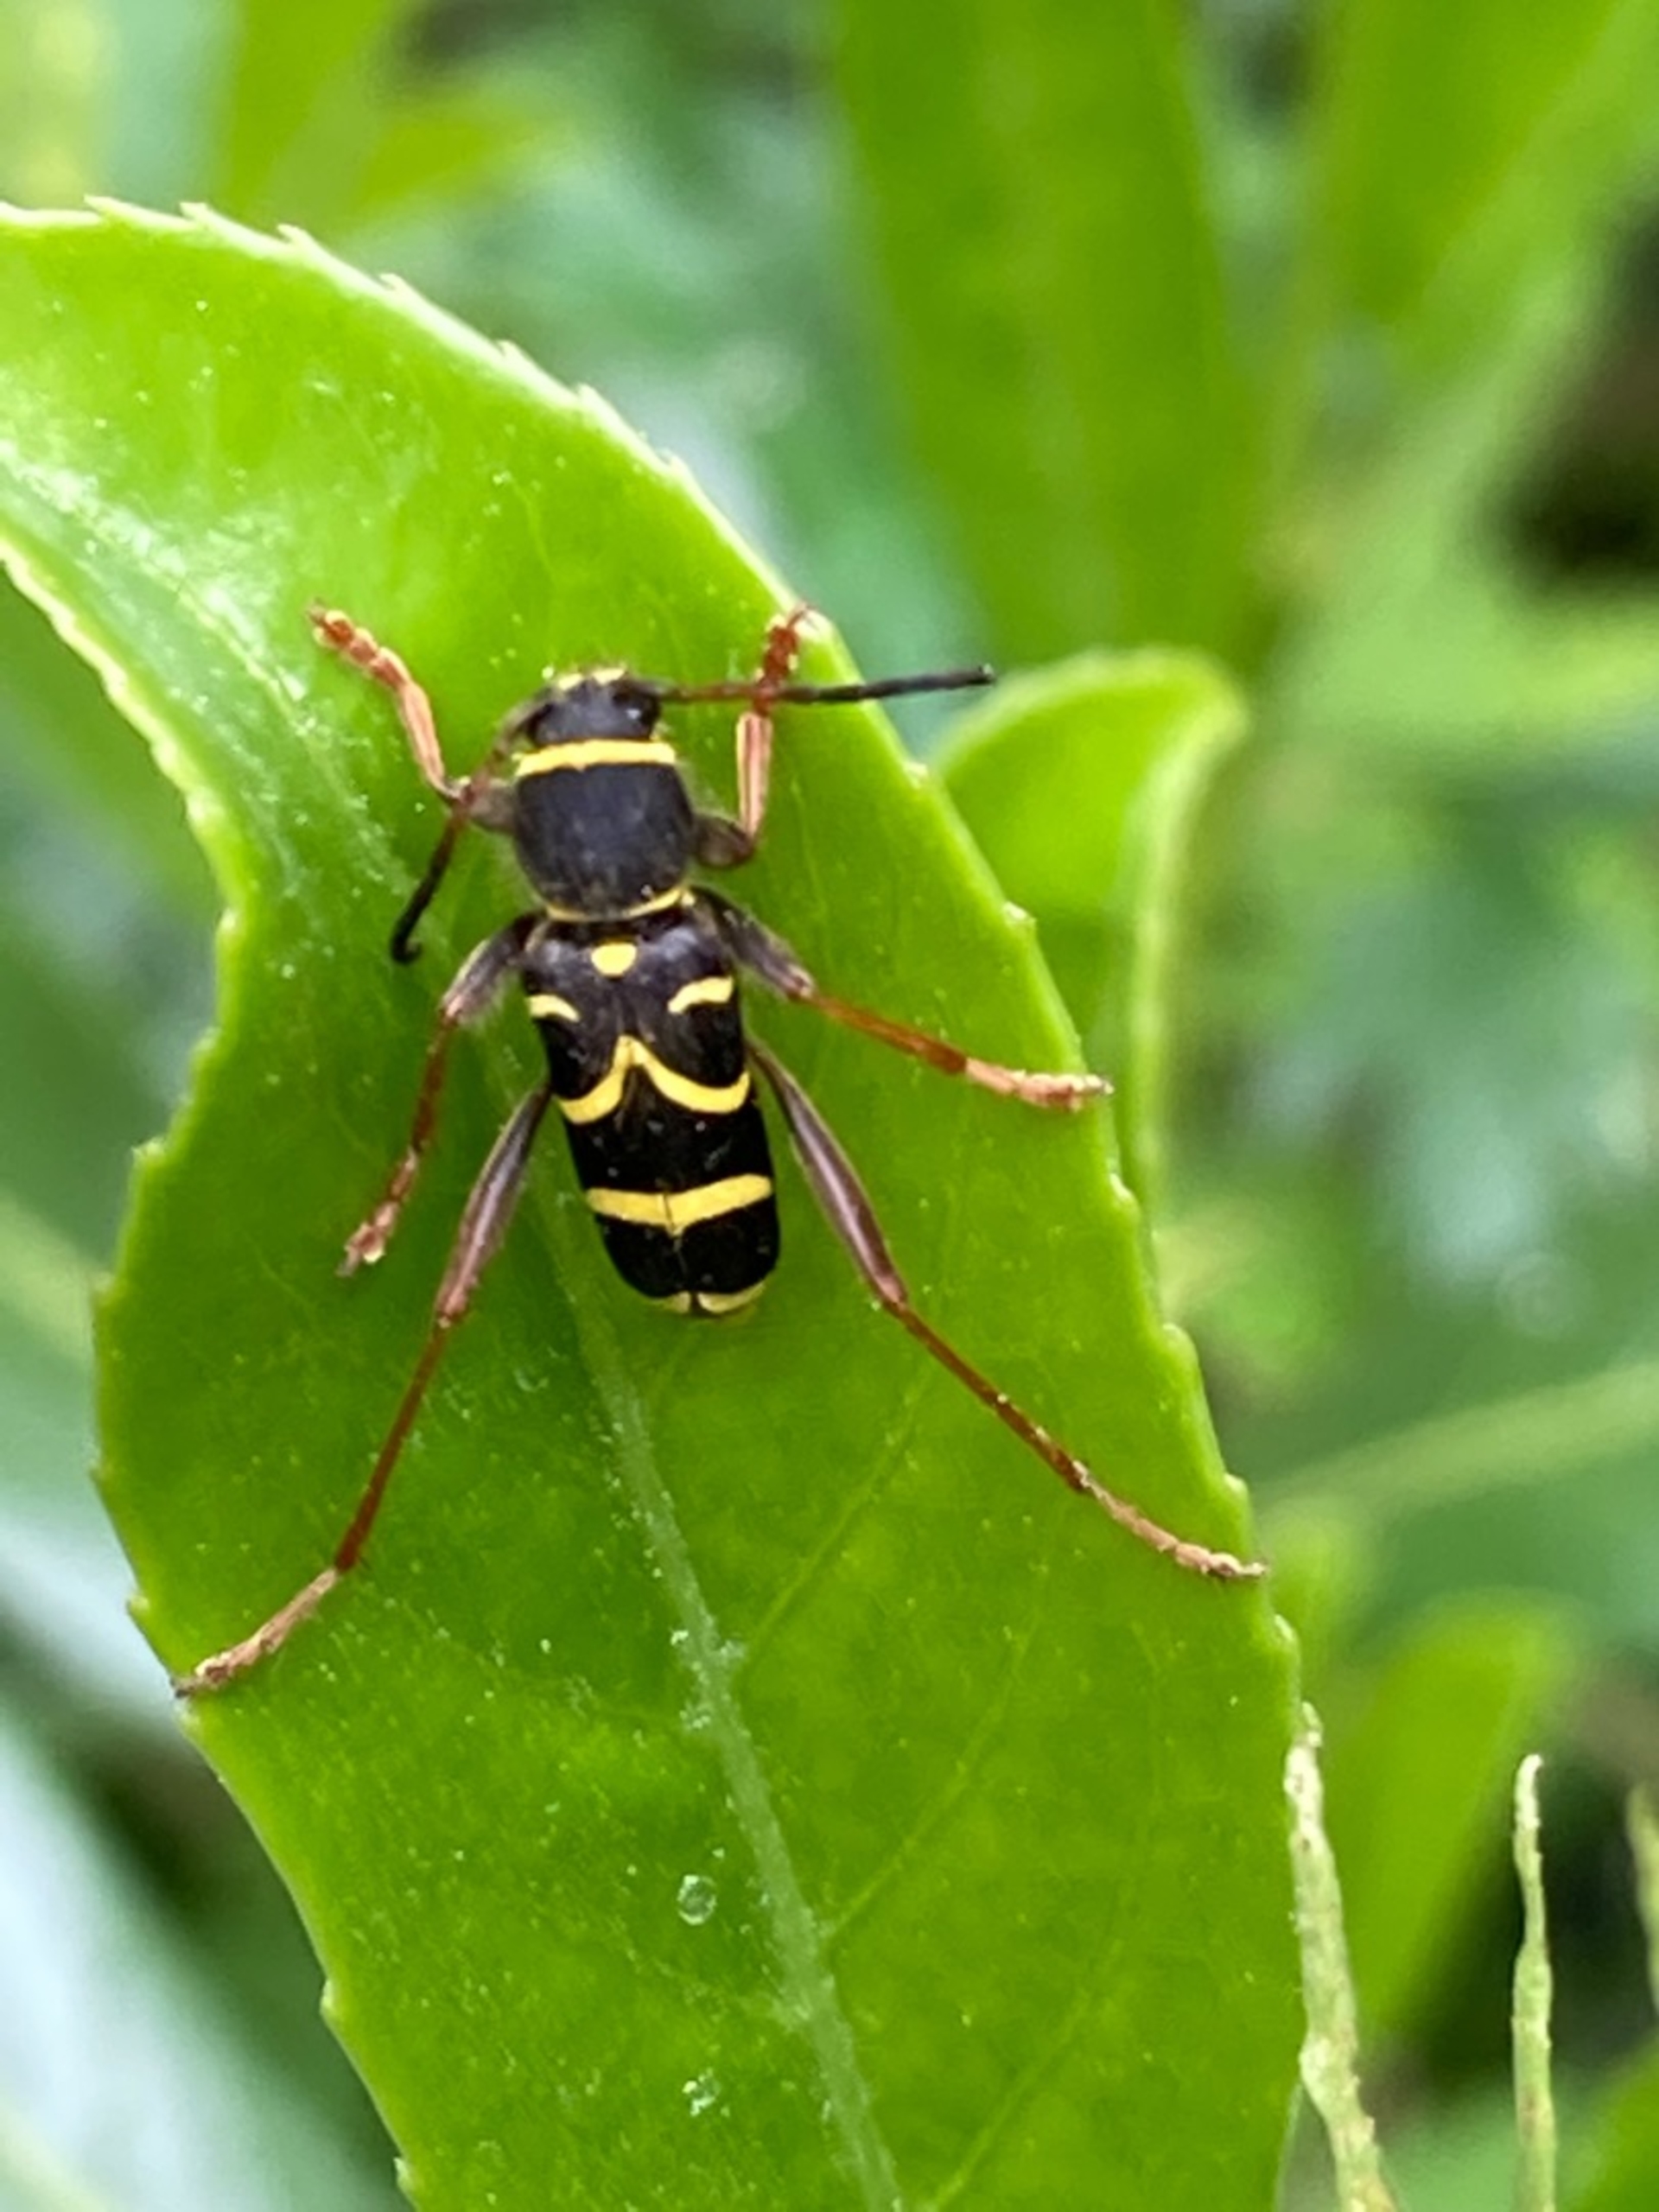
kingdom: Animalia
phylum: Arthropoda
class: Insecta
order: Coleoptera
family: Cerambycidae
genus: Clytus
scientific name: Clytus arietis
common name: Lille hvepsebuk
